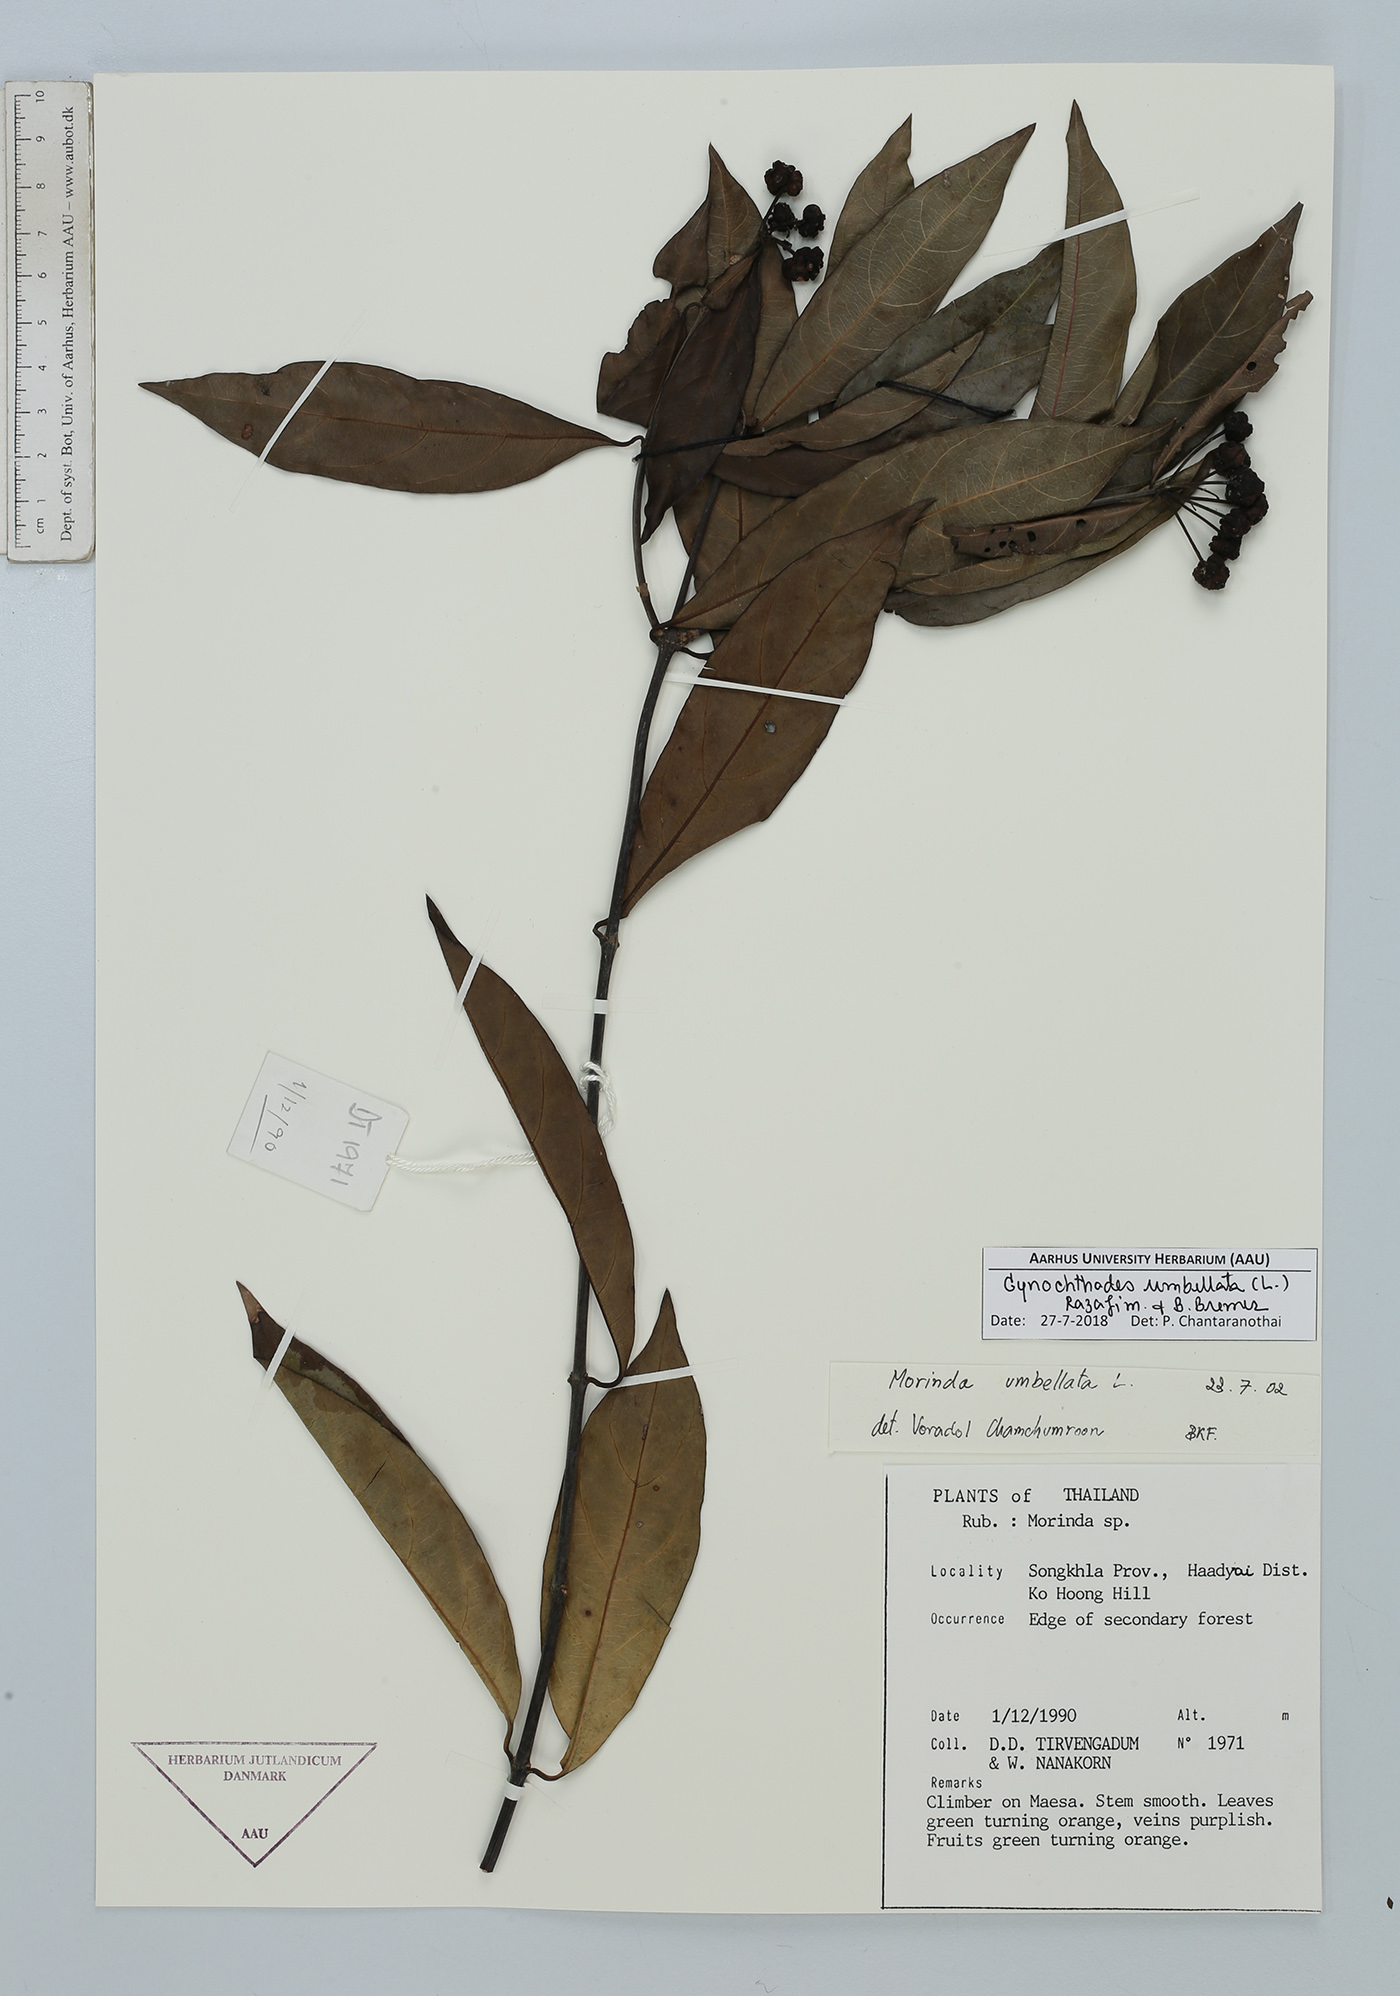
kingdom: Plantae
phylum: Tracheophyta
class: Magnoliopsida
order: Gentianales
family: Rubiaceae
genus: Gynochthodes
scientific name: Gynochthodes umbellata
